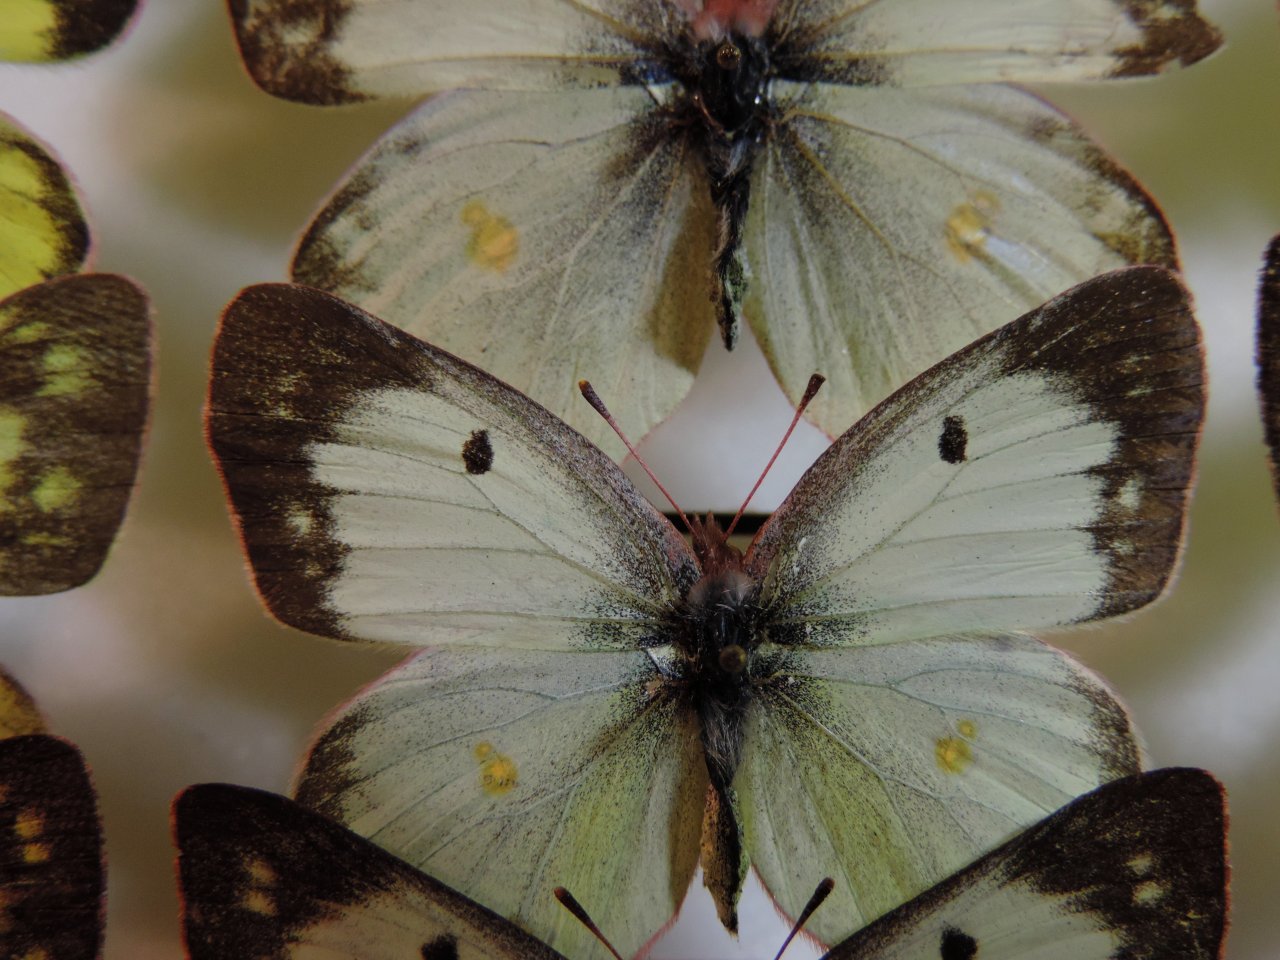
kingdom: Animalia
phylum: Arthropoda
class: Insecta
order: Lepidoptera
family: Pieridae
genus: Colias
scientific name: Colias philodice
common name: Clouded Sulphur
